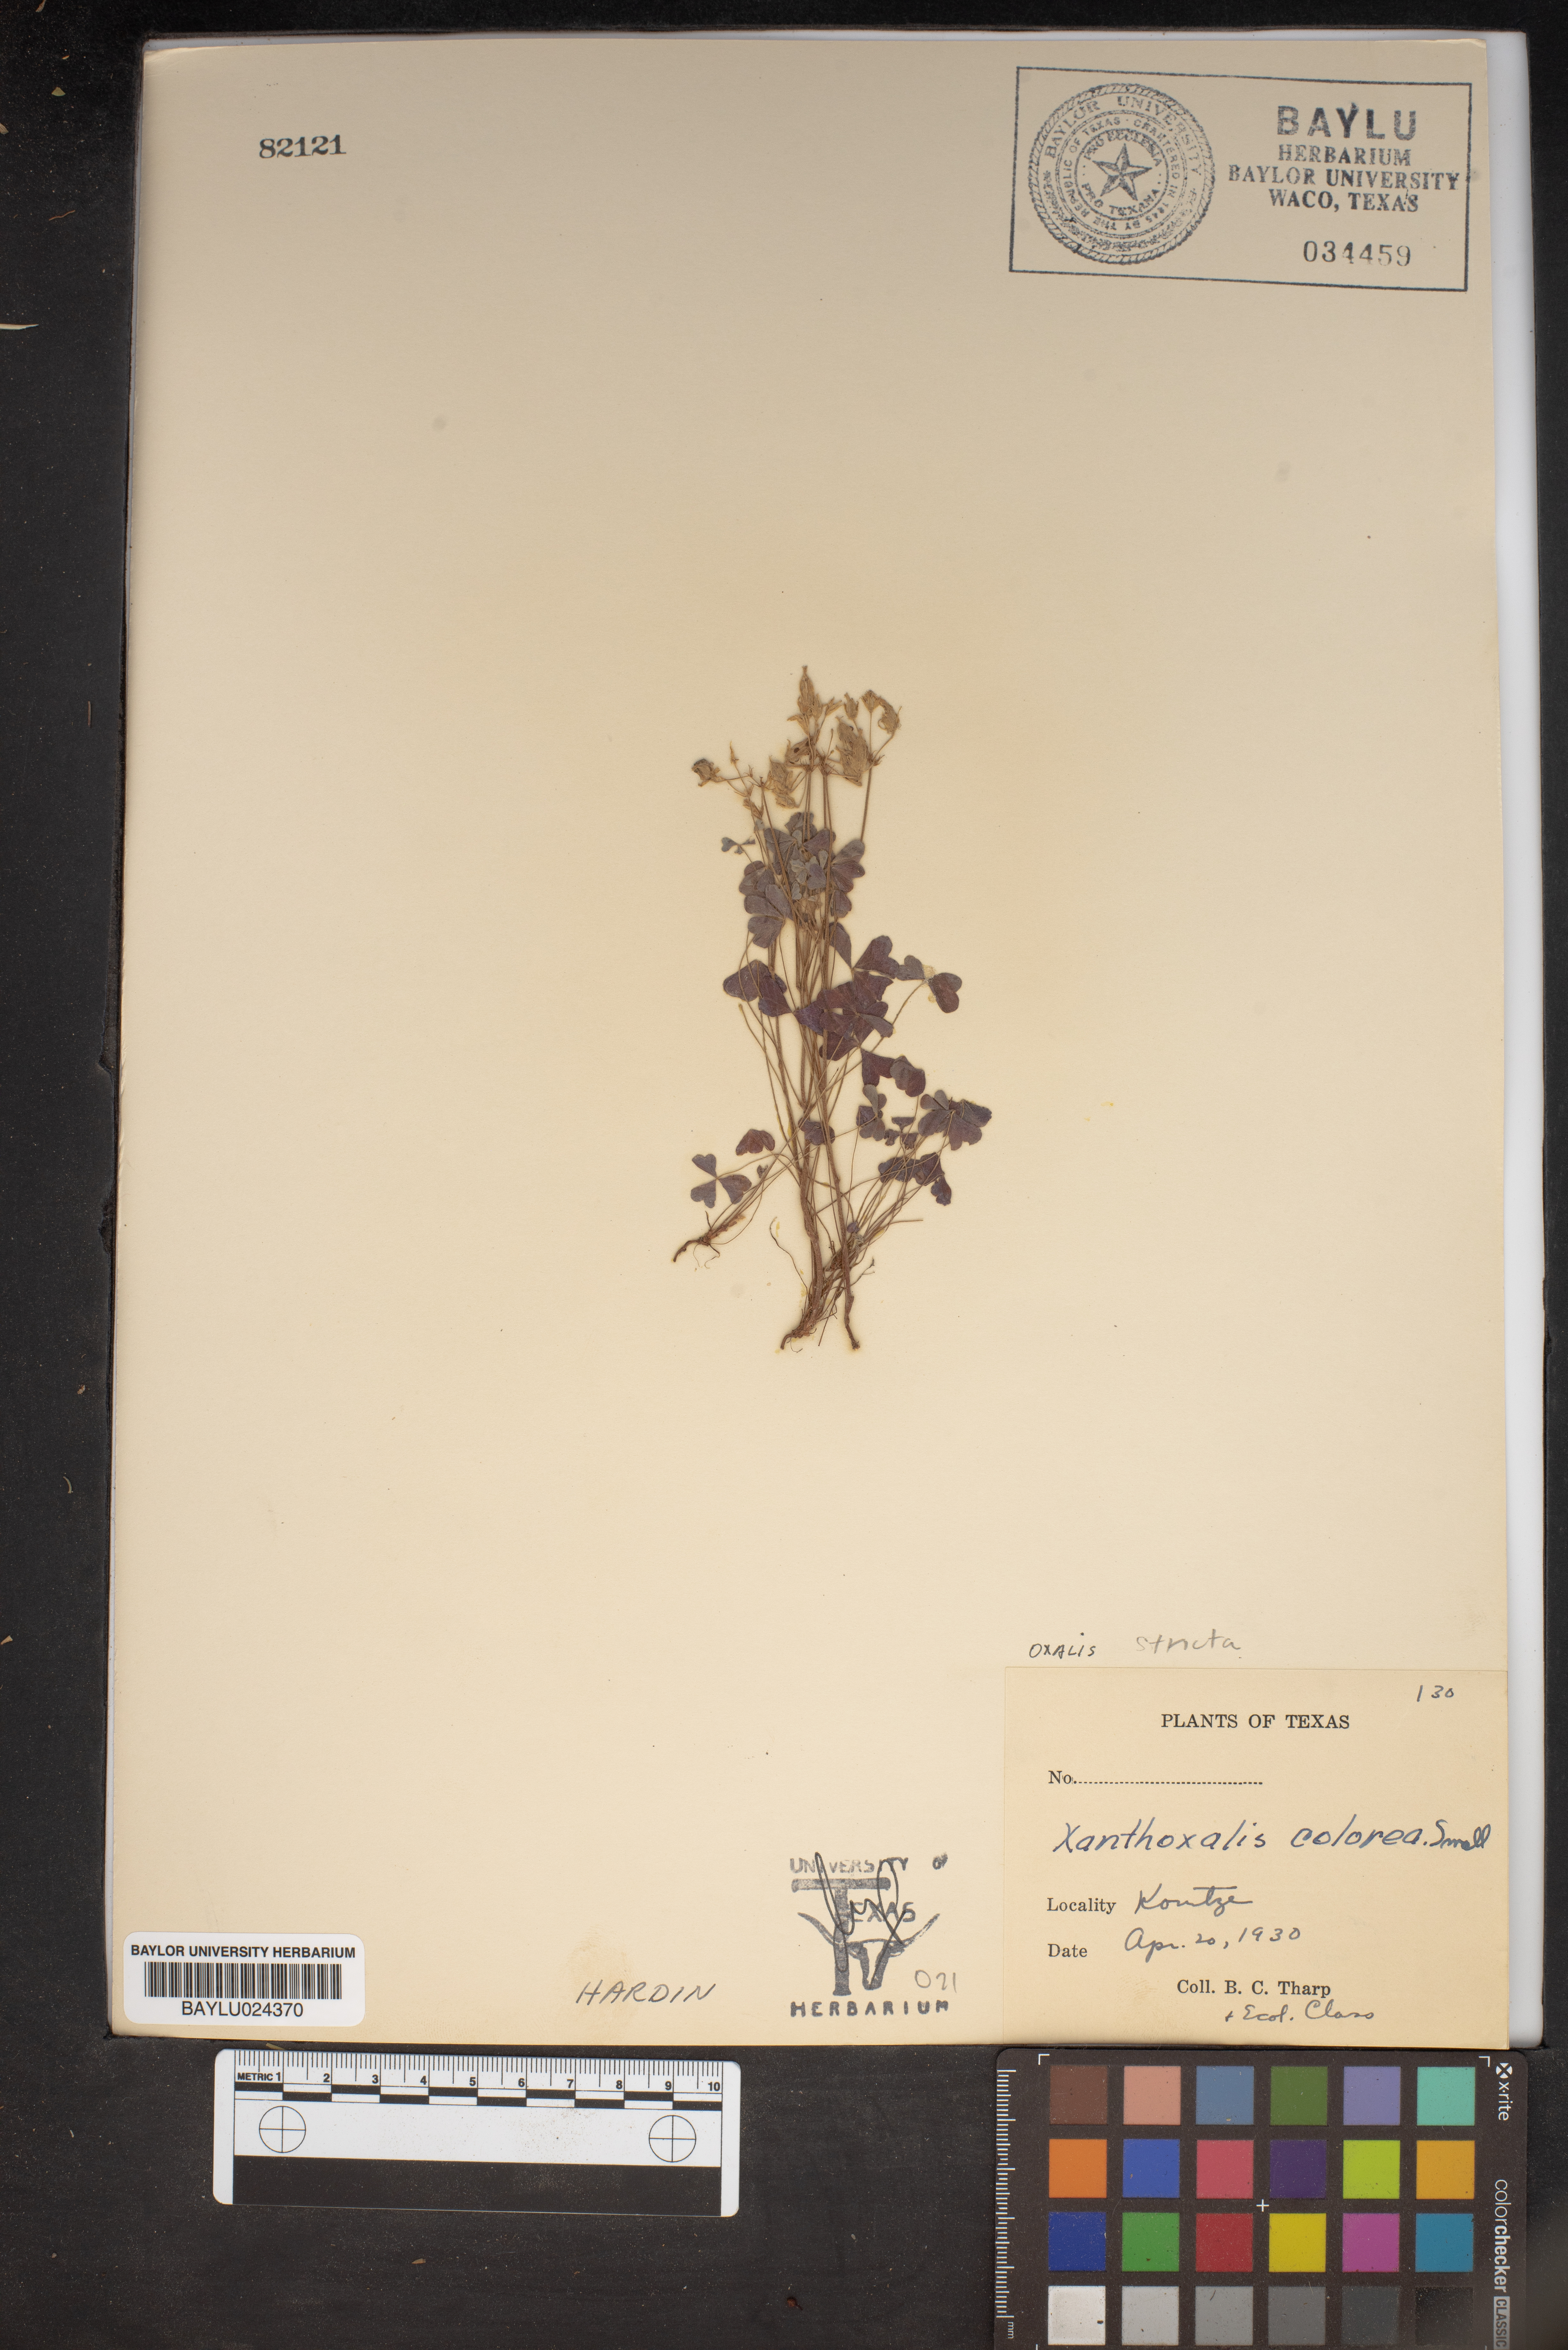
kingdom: Plantae
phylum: Tracheophyta
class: Magnoliopsida
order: Oxalidales
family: Oxalidaceae
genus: Oxalis
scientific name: Oxalis colorea
